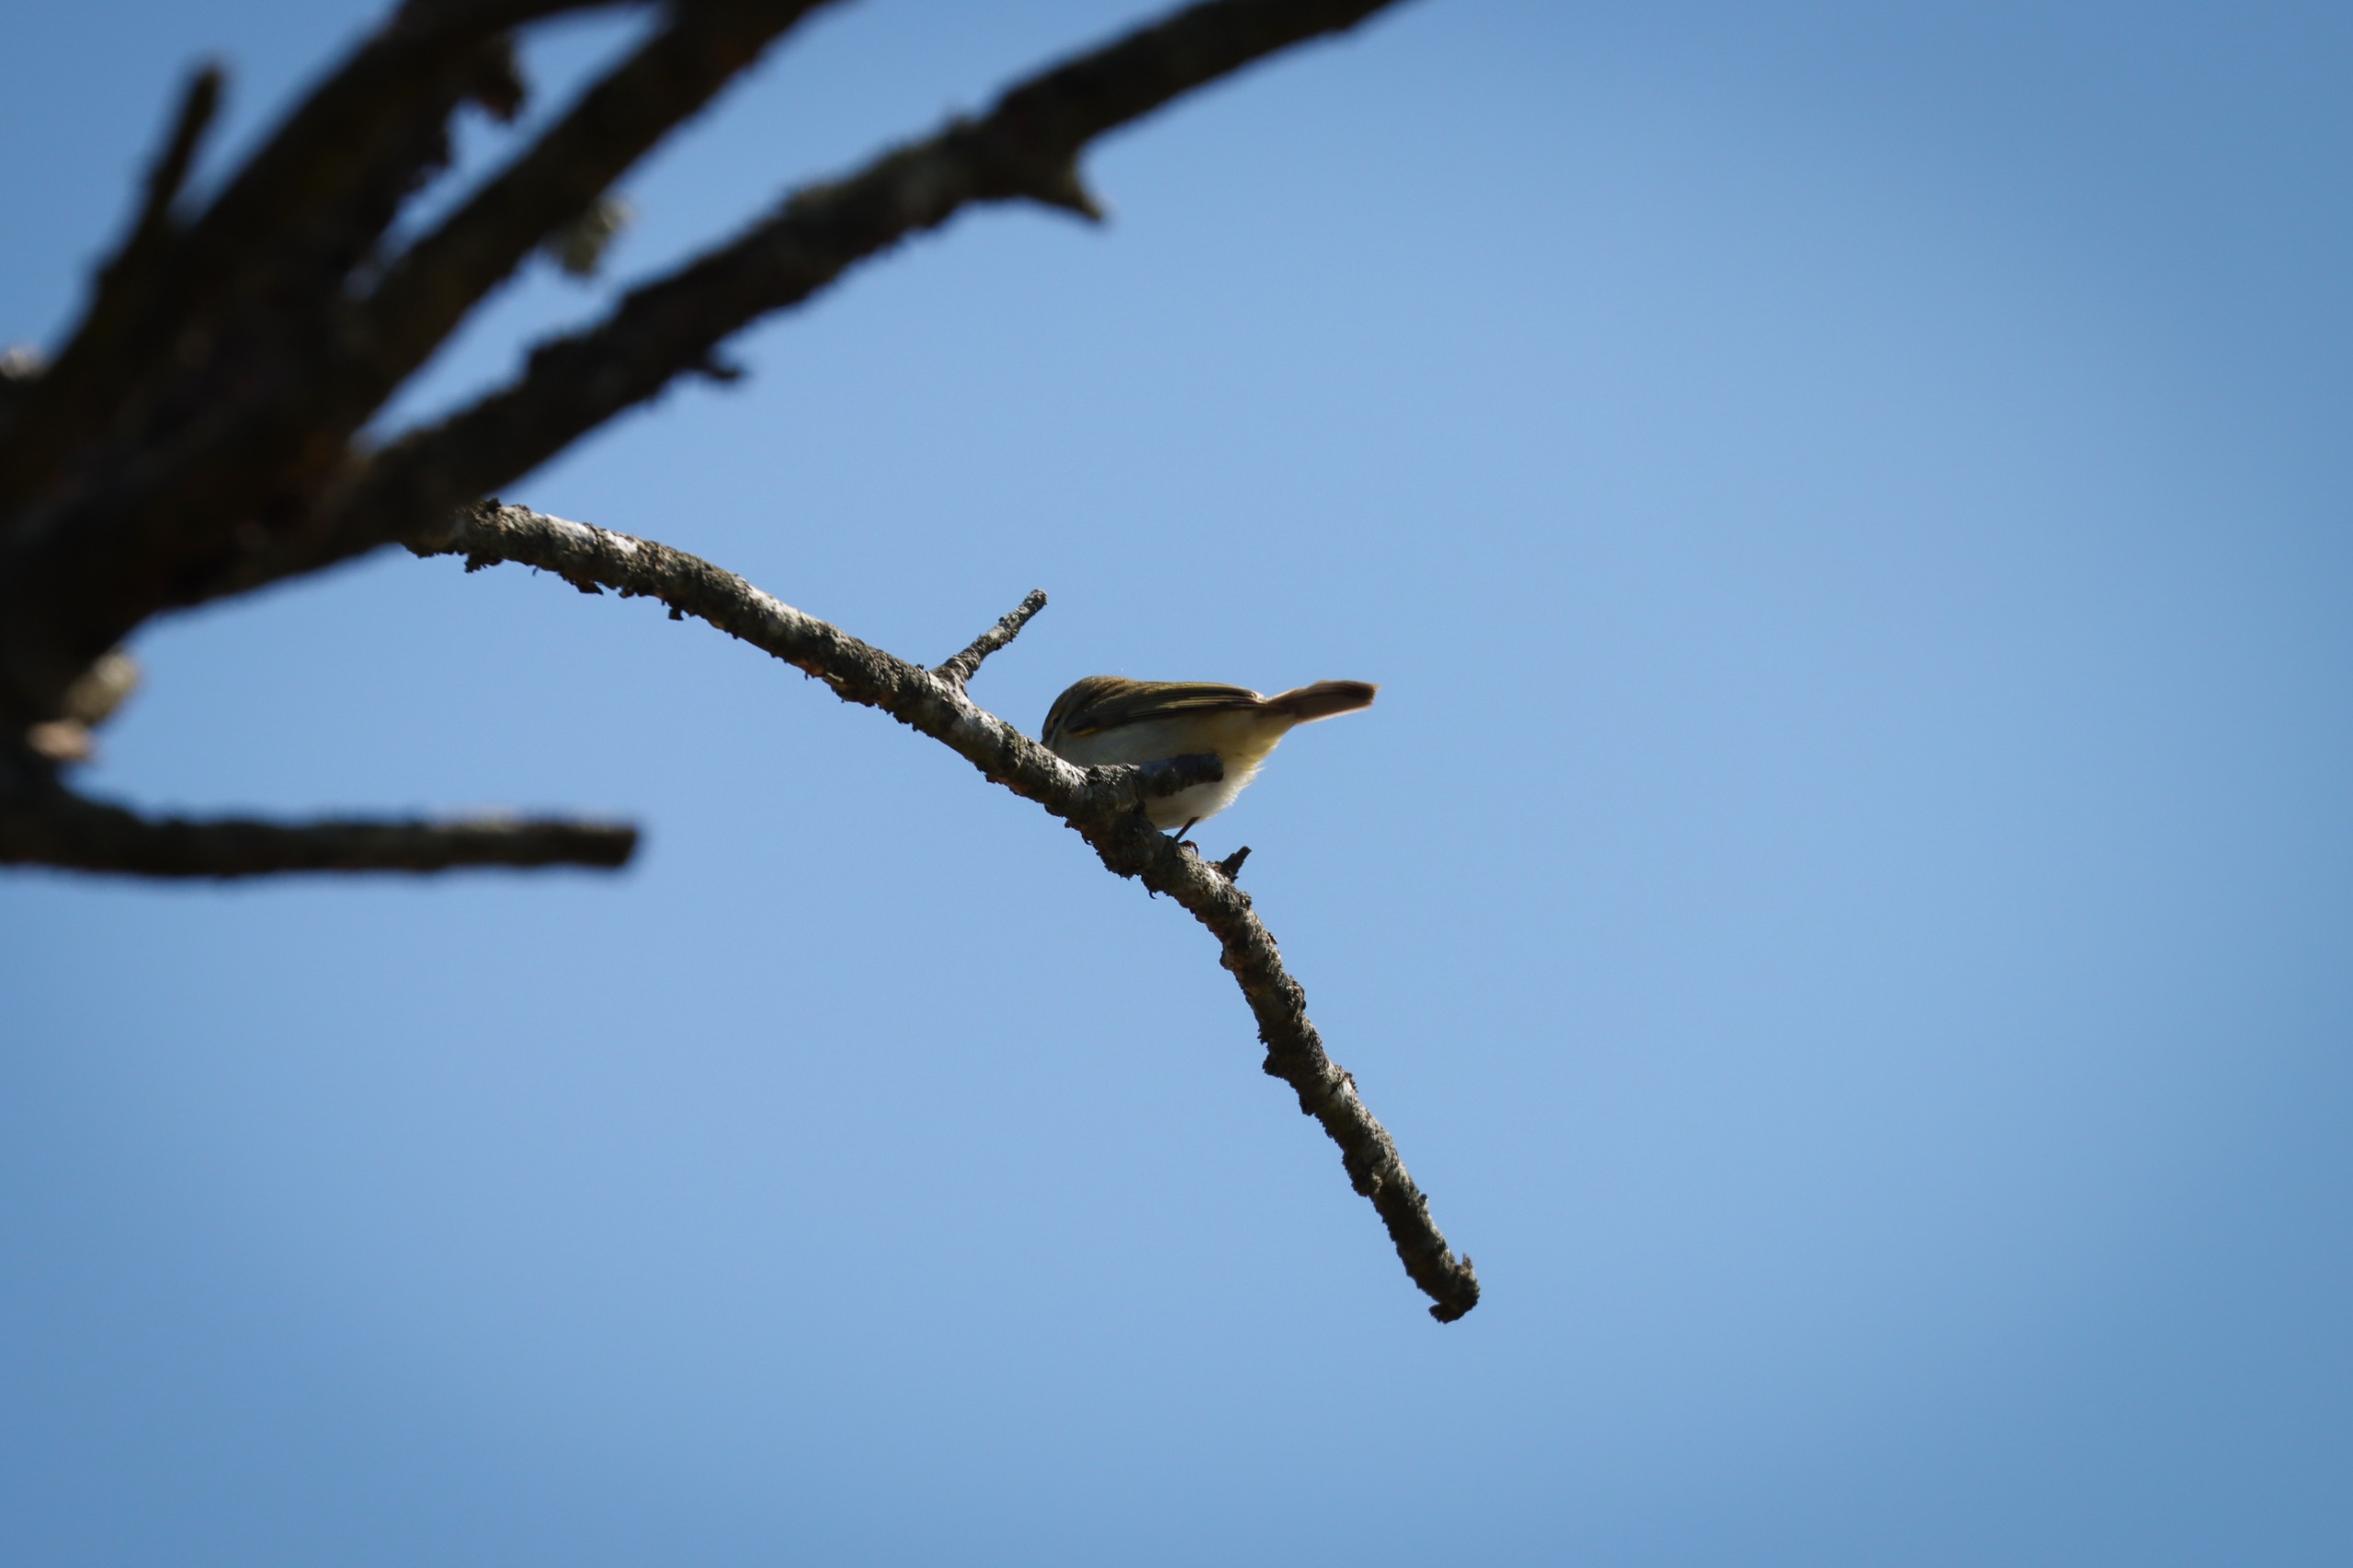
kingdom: Animalia
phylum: Chordata
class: Aves
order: Passeriformes
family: Phylloscopidae
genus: Phylloscopus
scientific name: Phylloscopus collybita
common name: Gransanger
